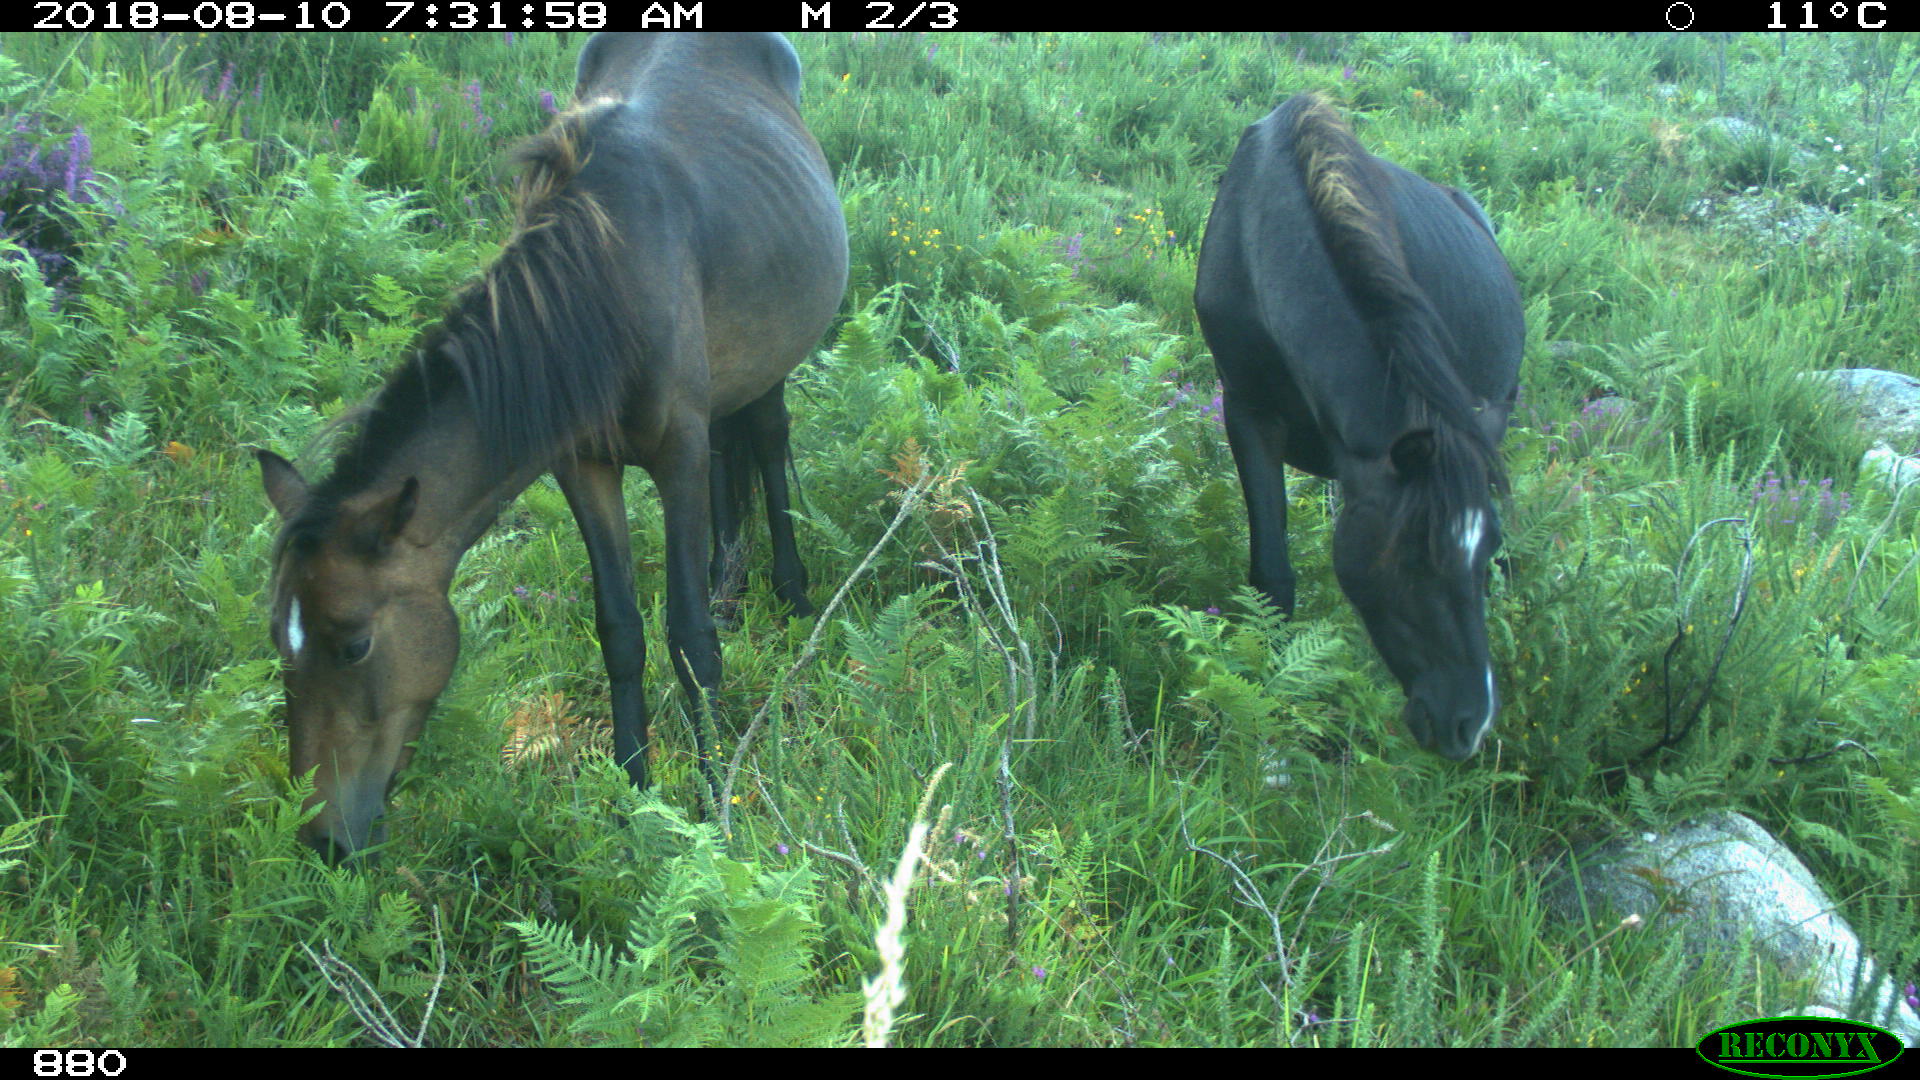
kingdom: Animalia
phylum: Chordata
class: Mammalia
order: Perissodactyla
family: Equidae
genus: Equus
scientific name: Equus caballus
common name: Horse
